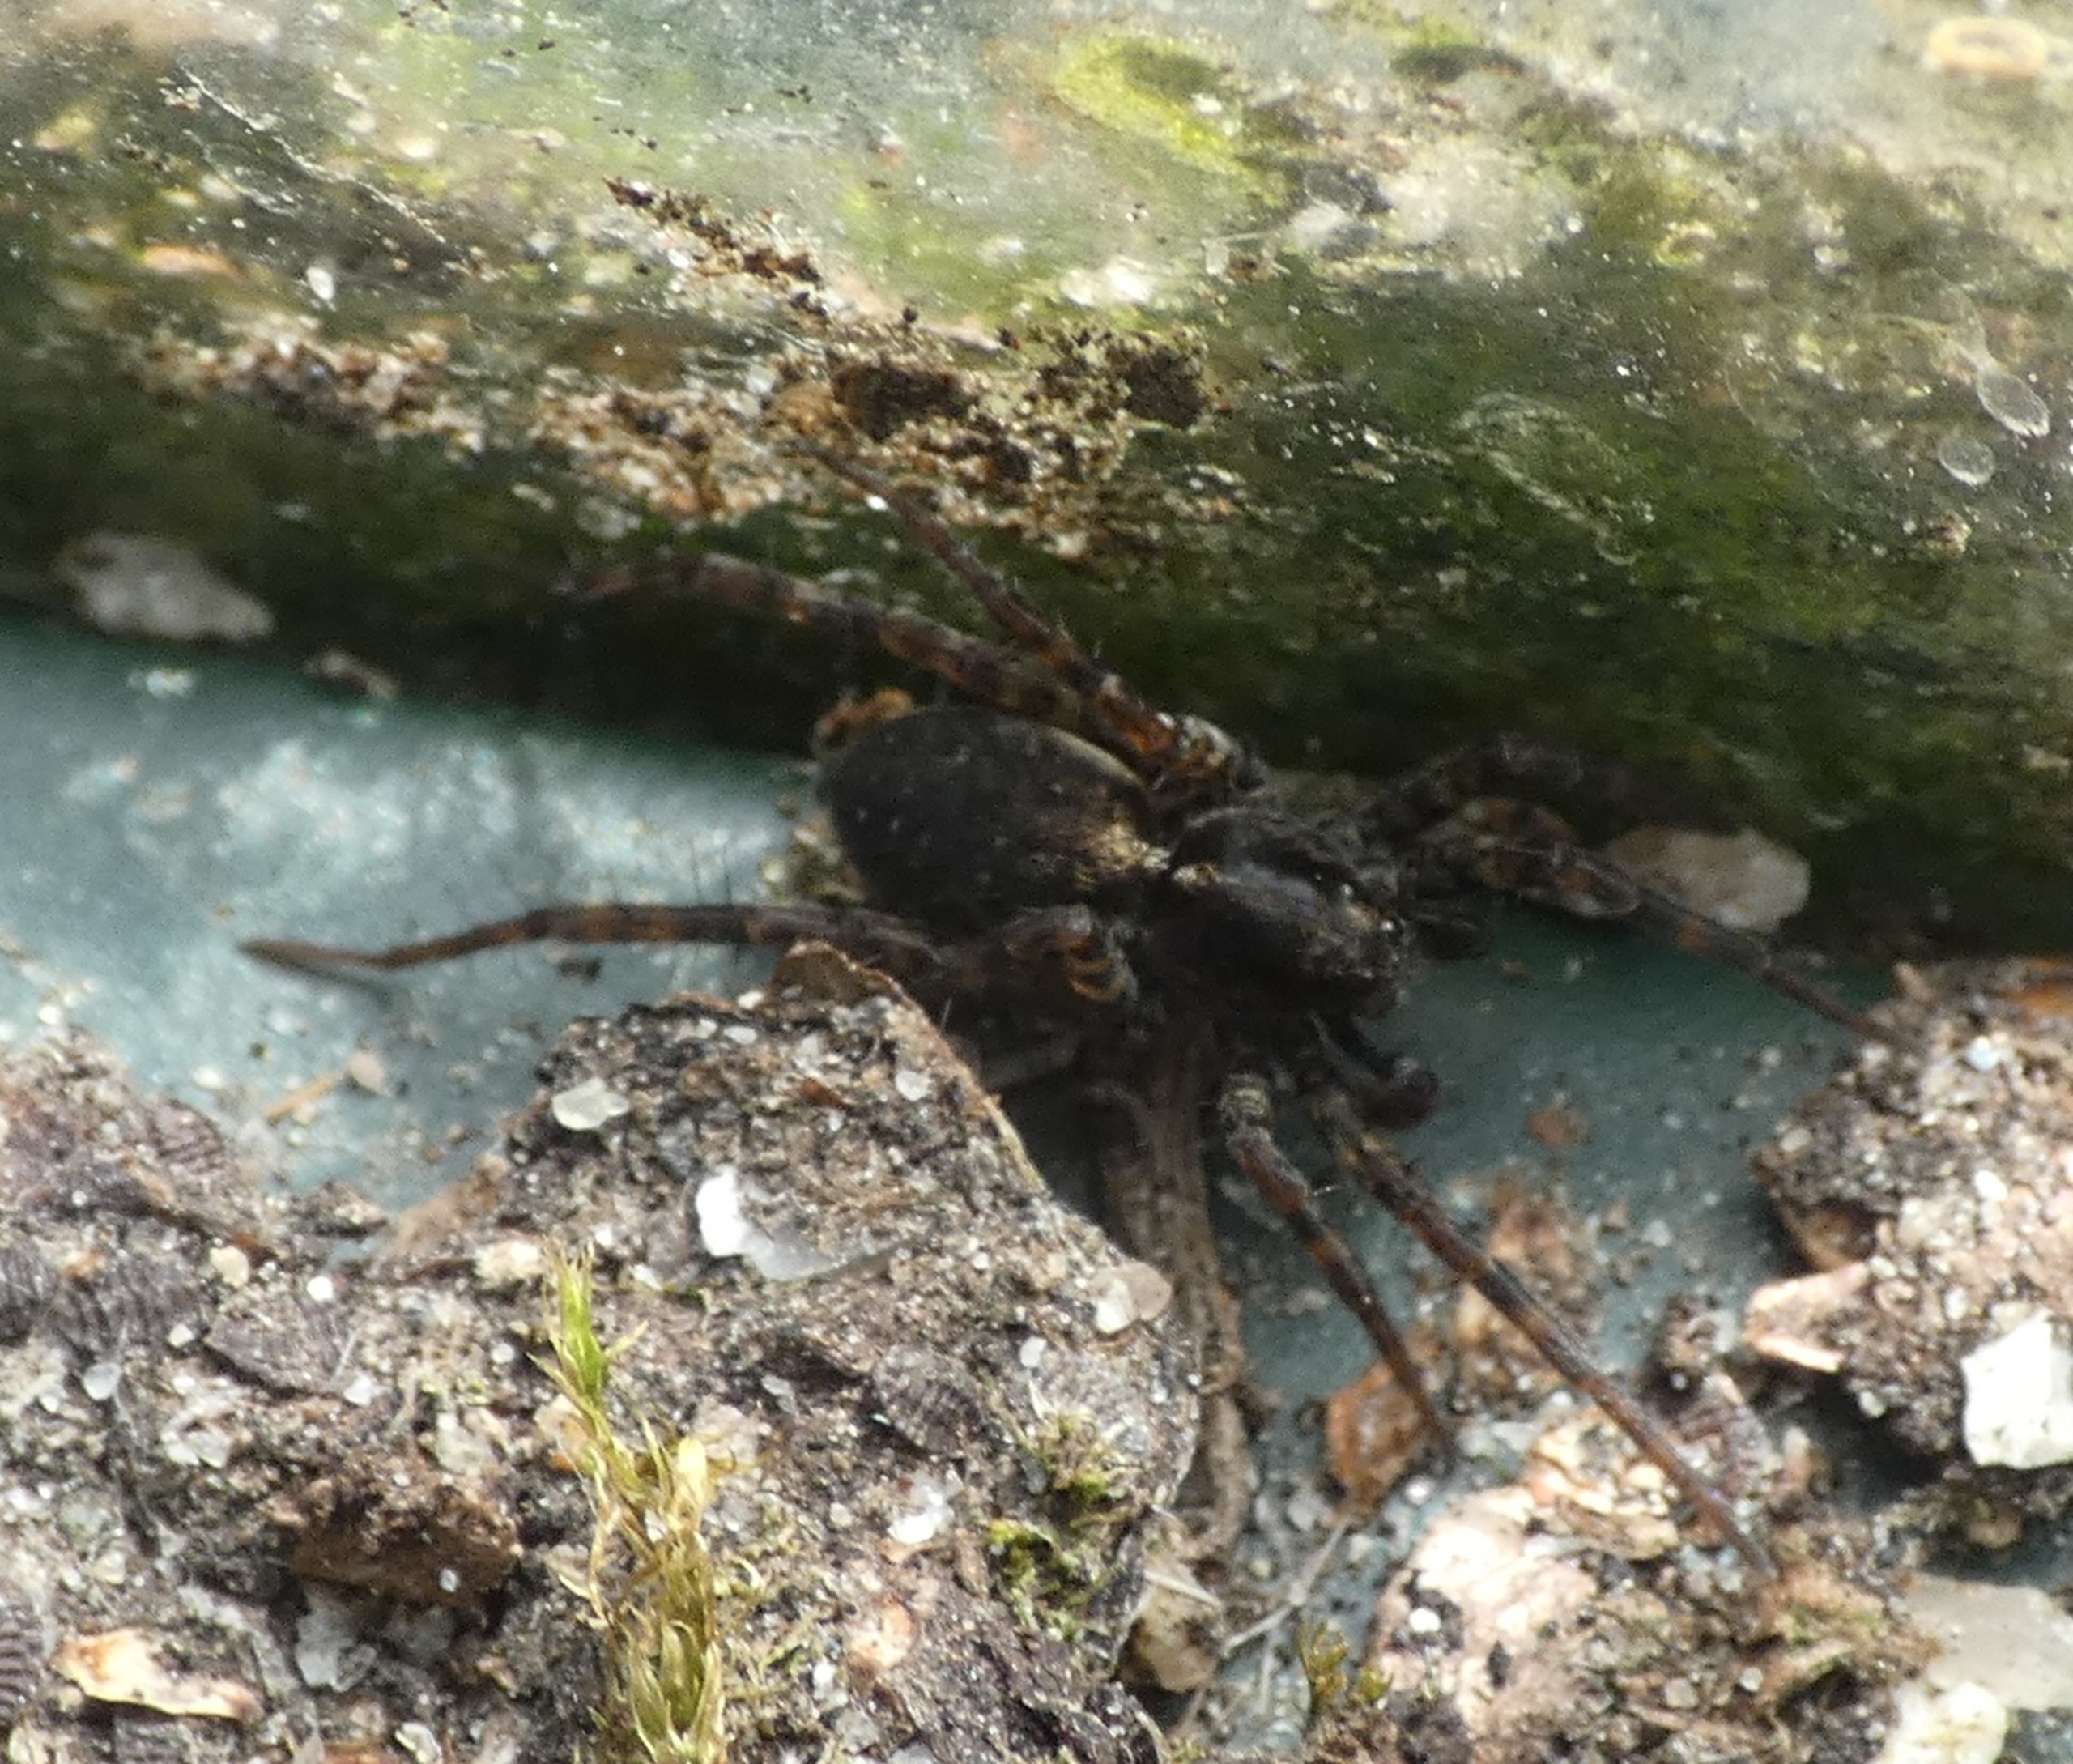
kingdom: Animalia
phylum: Arthropoda
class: Arachnida
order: Araneae
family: Lycosidae
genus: Pardosa
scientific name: Pardosa
